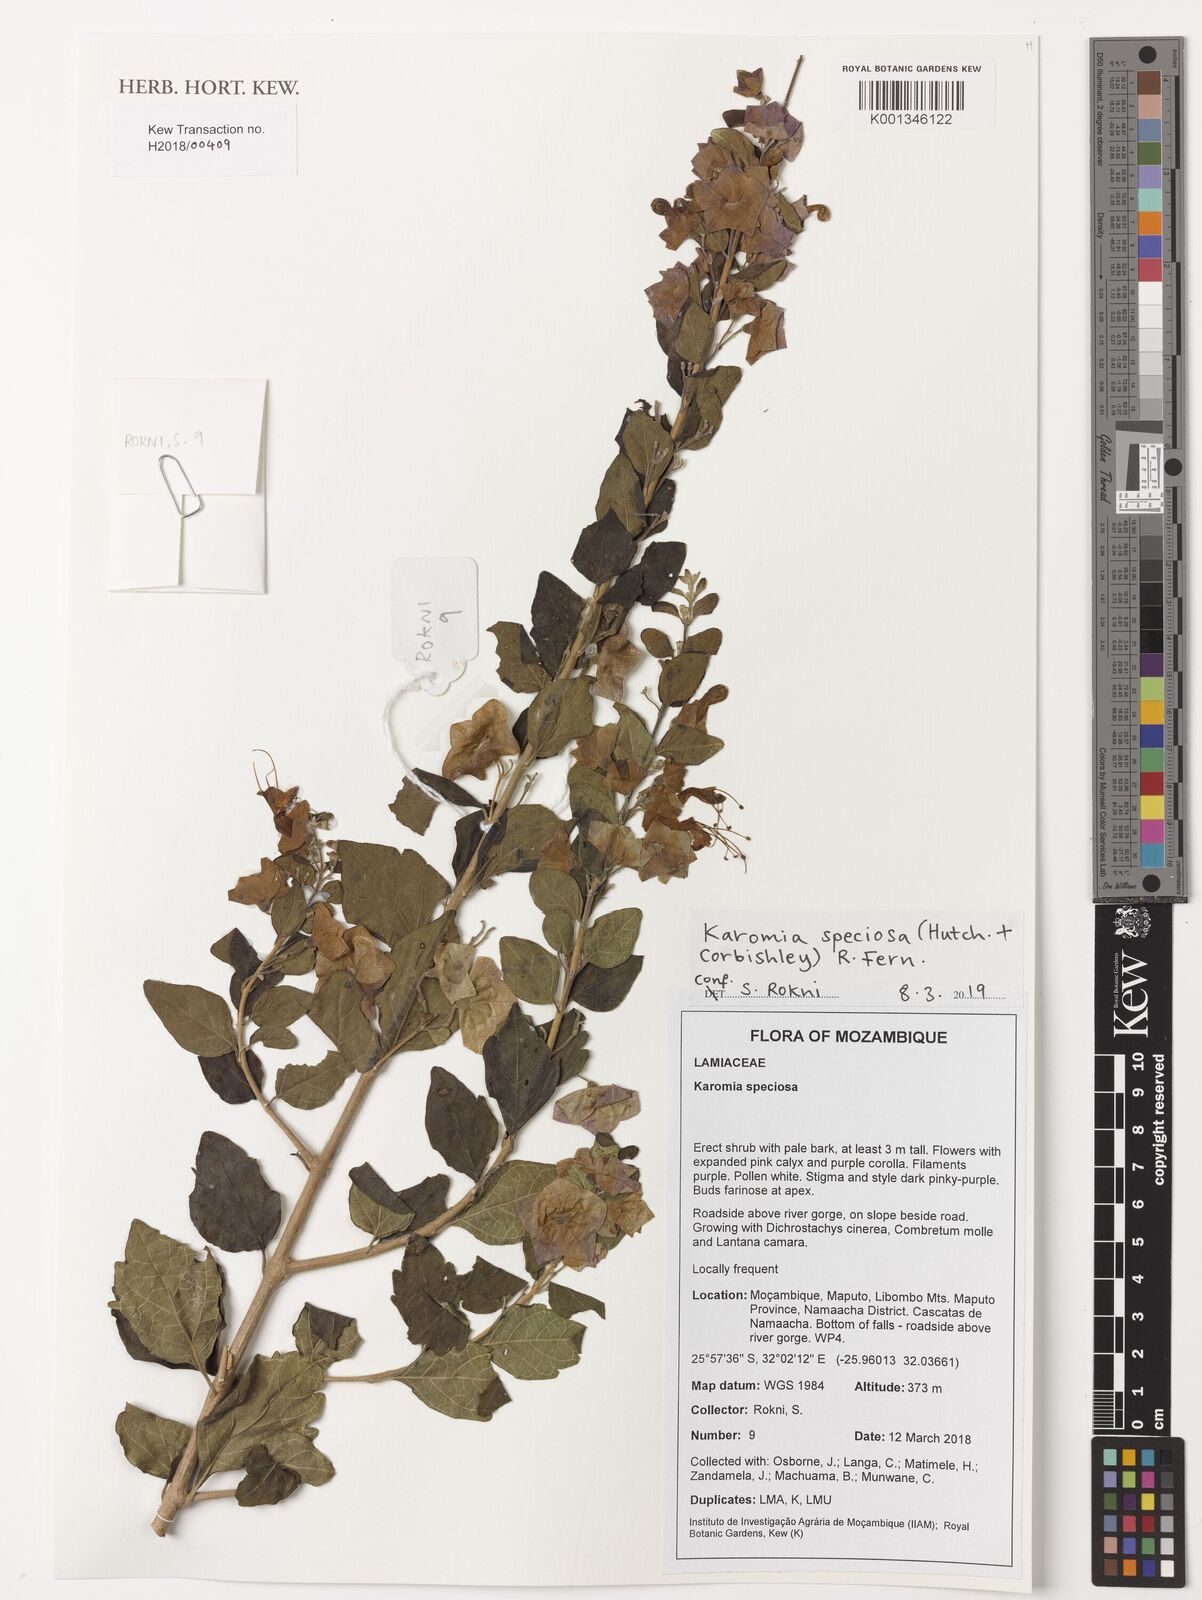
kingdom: Plantae
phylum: Tracheophyta
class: Magnoliopsida
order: Lamiales
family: Lamiaceae
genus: Karomia
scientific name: Karomia speciosa
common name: Southern chinese-hats
